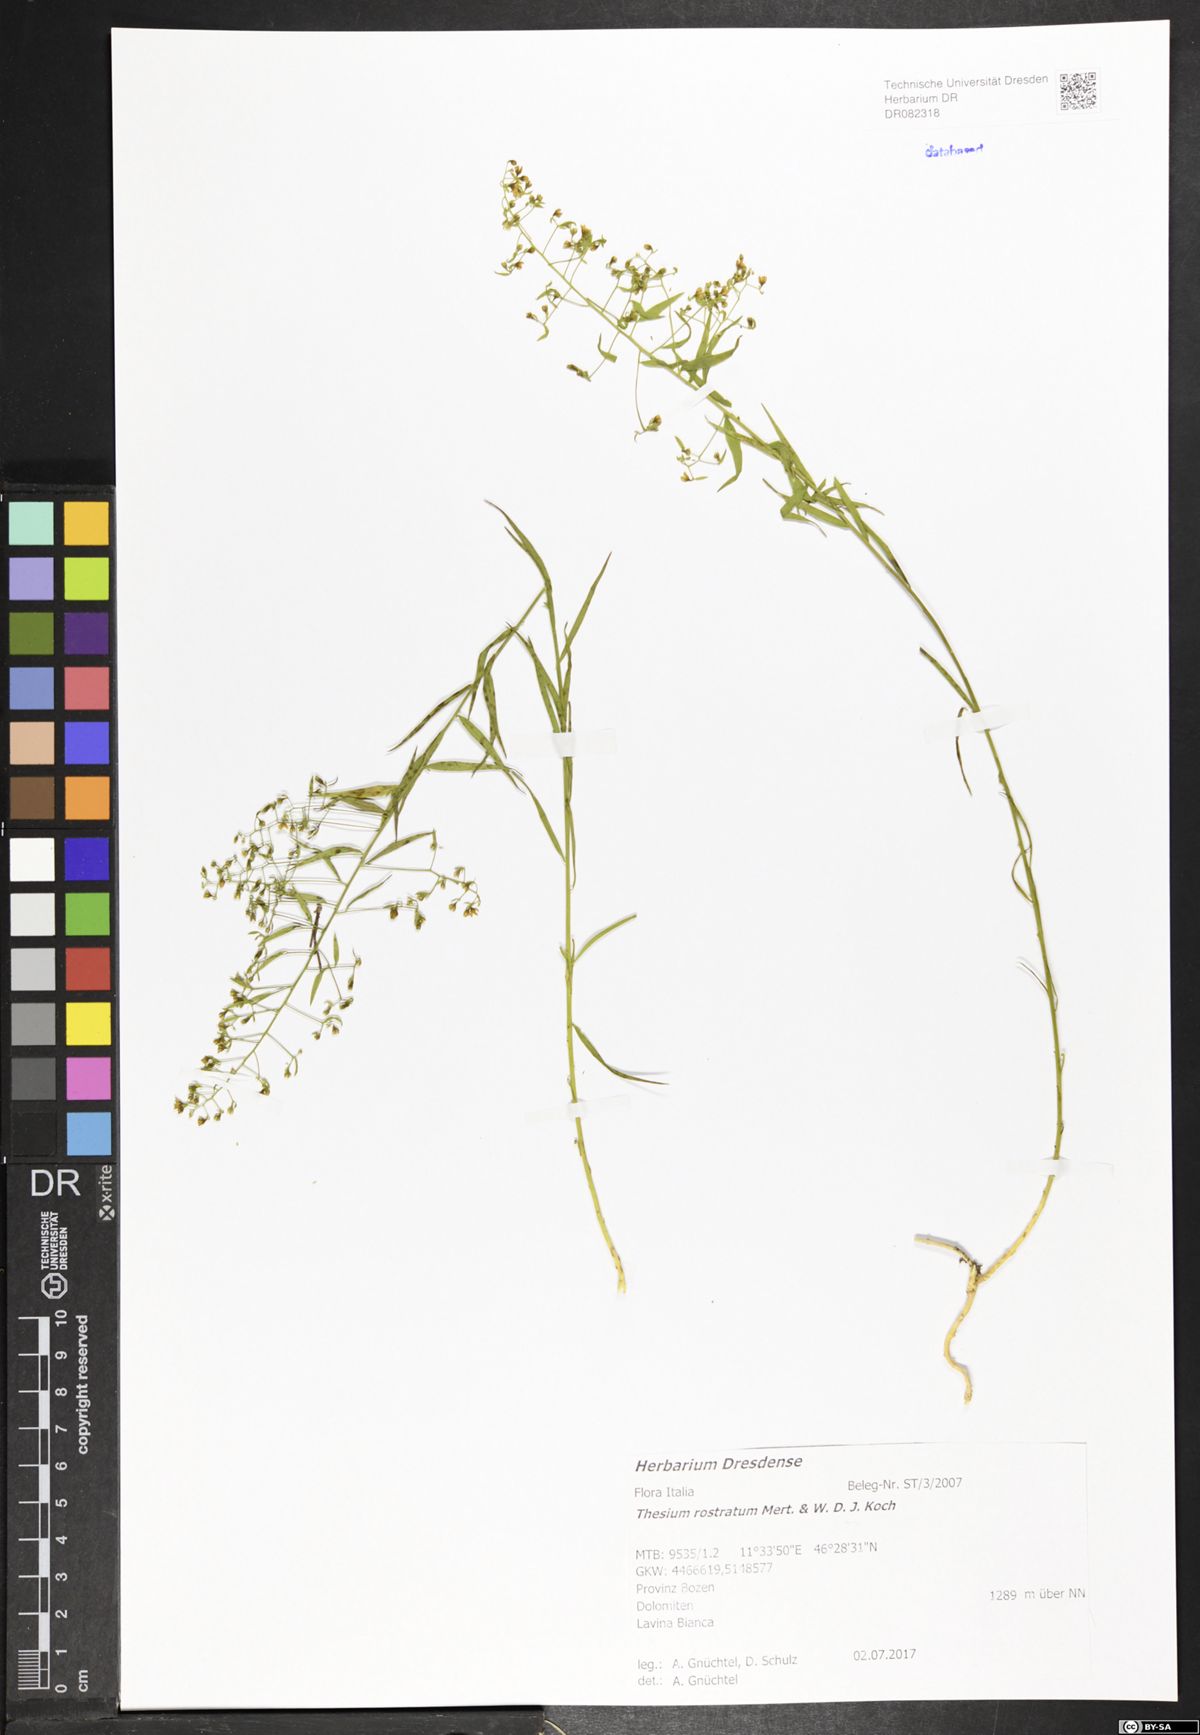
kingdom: Plantae
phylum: Tracheophyta
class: Magnoliopsida
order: Santalales
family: Thesiaceae
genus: Thesium
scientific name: Thesium rostratum
